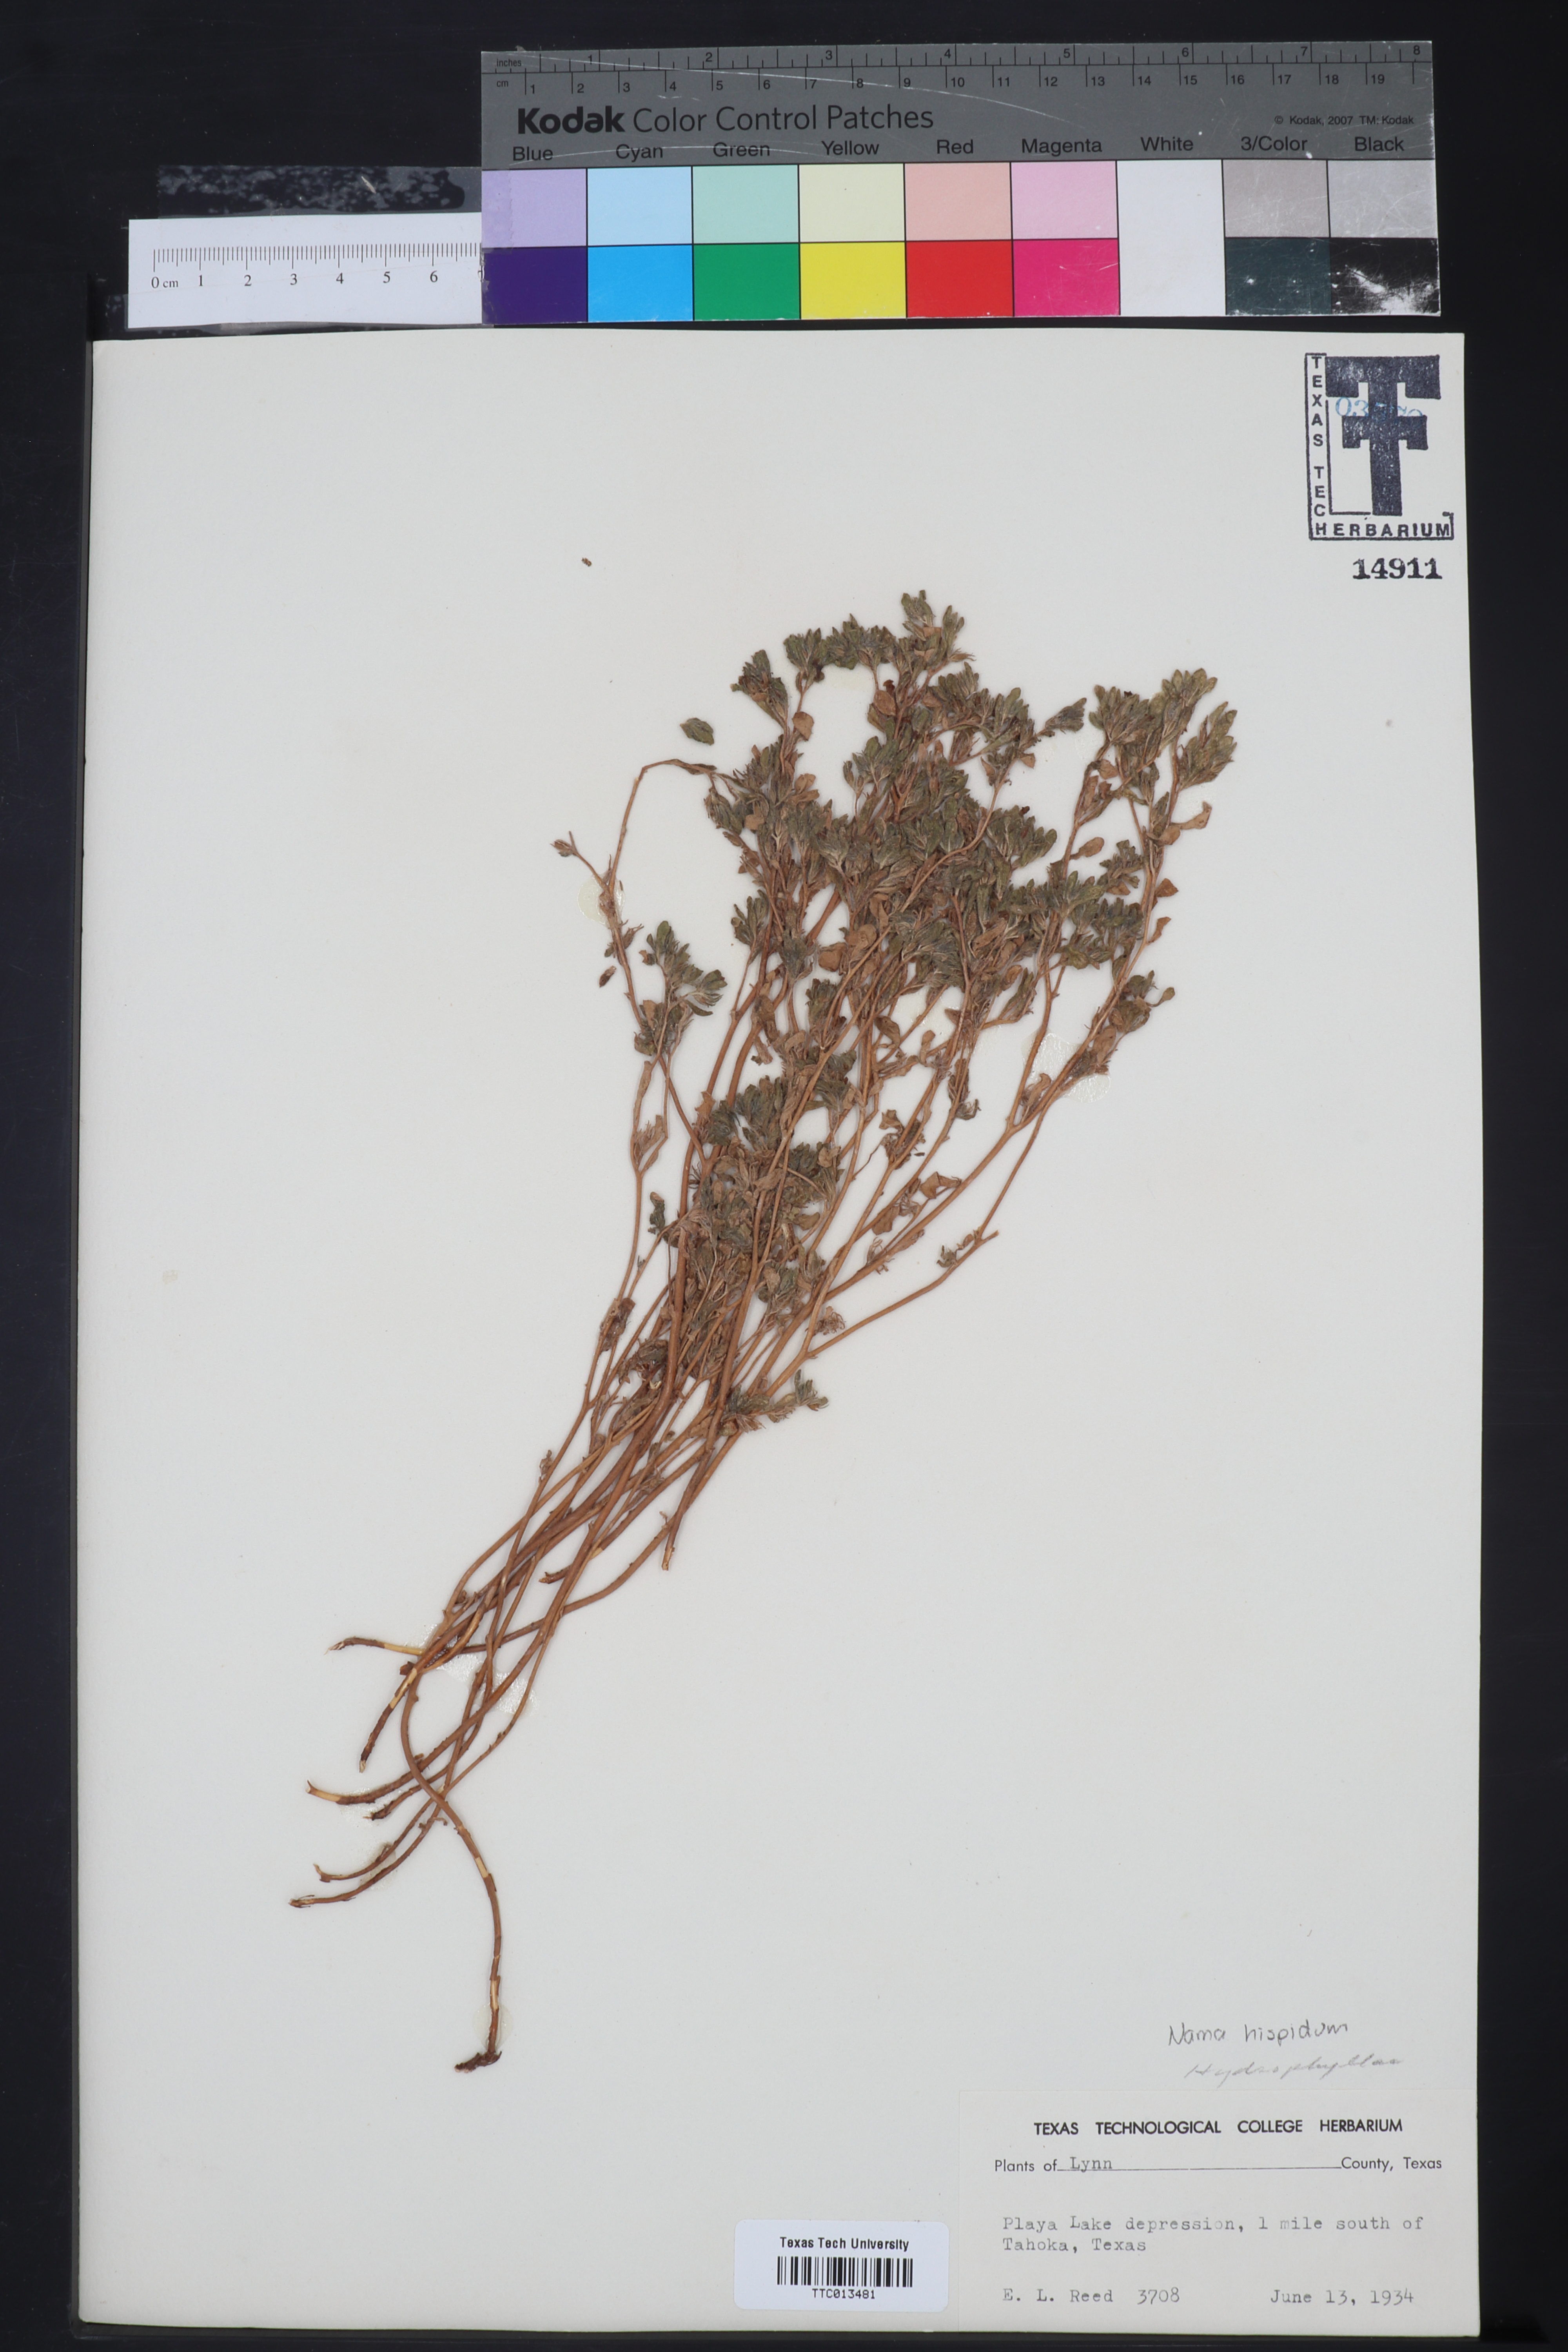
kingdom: Plantae
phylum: Tracheophyta
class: Magnoliopsida
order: Boraginales
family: Namaceae
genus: Nama
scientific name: Nama hispida
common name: Bristly nama
